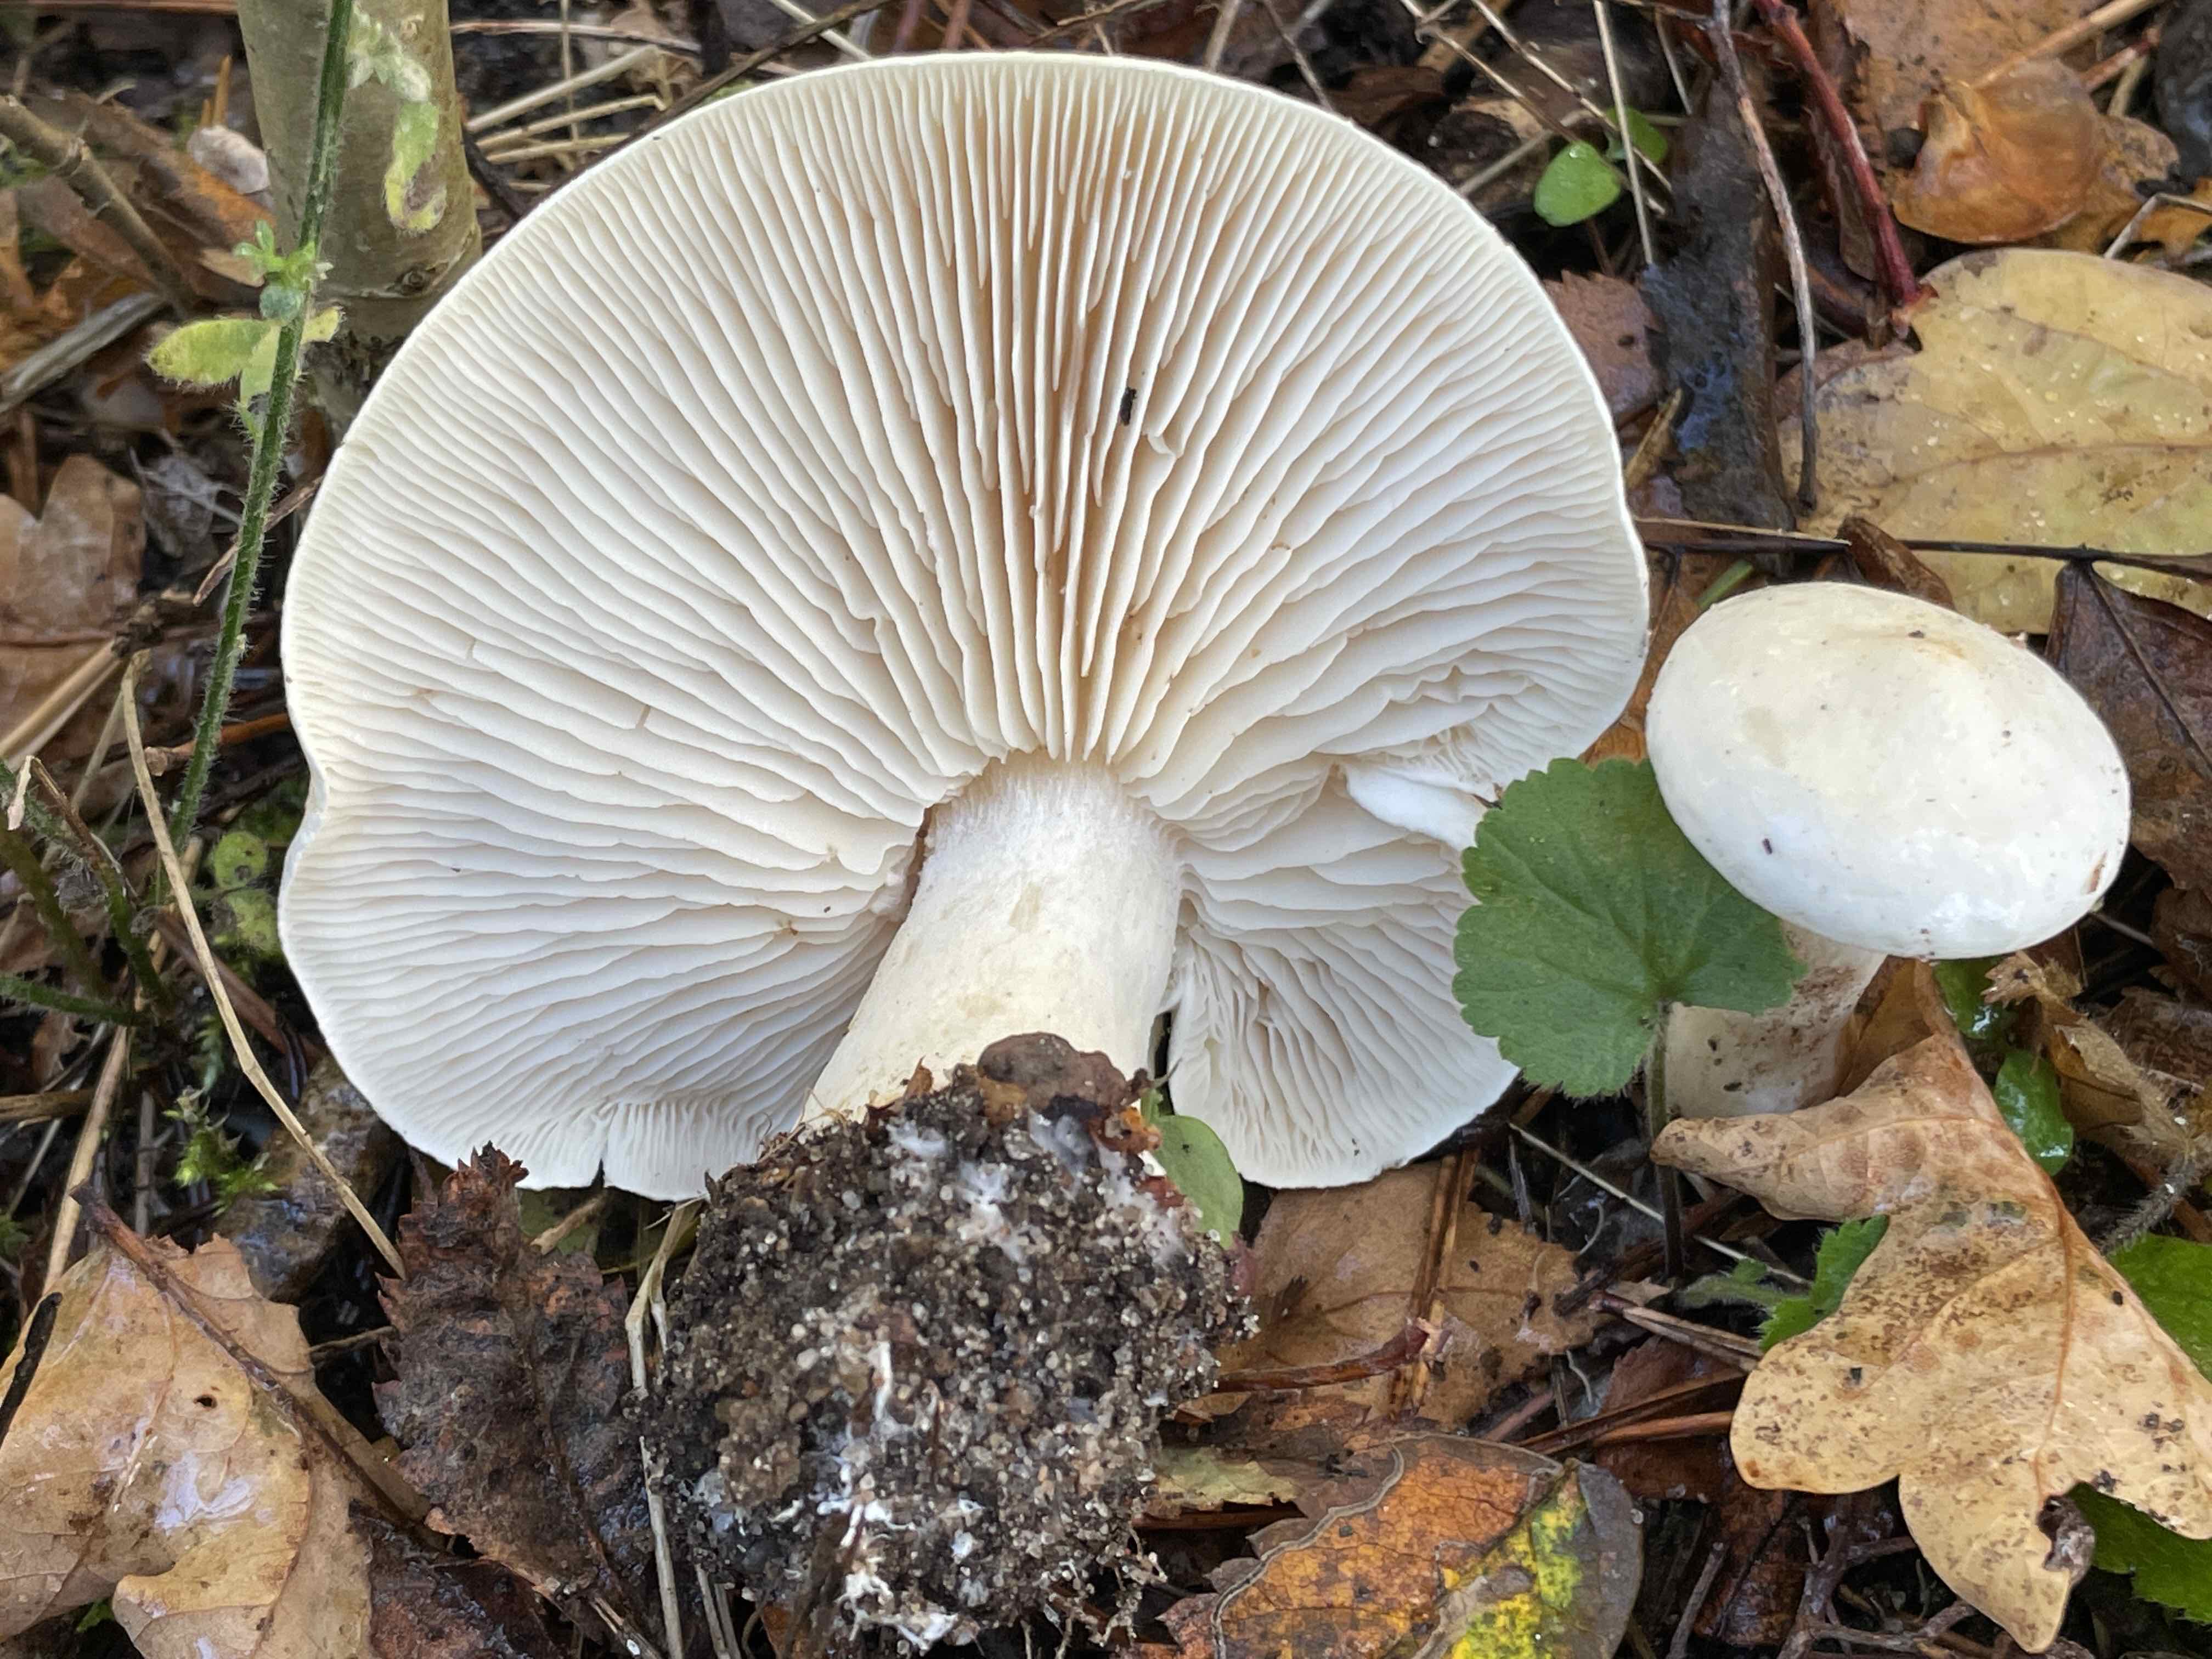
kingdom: Fungi
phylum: Basidiomycota
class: Agaricomycetes
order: Agaricales
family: Tricholomataceae
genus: Tricholoma
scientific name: Tricholoma stiparophyllum
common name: hvid ridderhat
